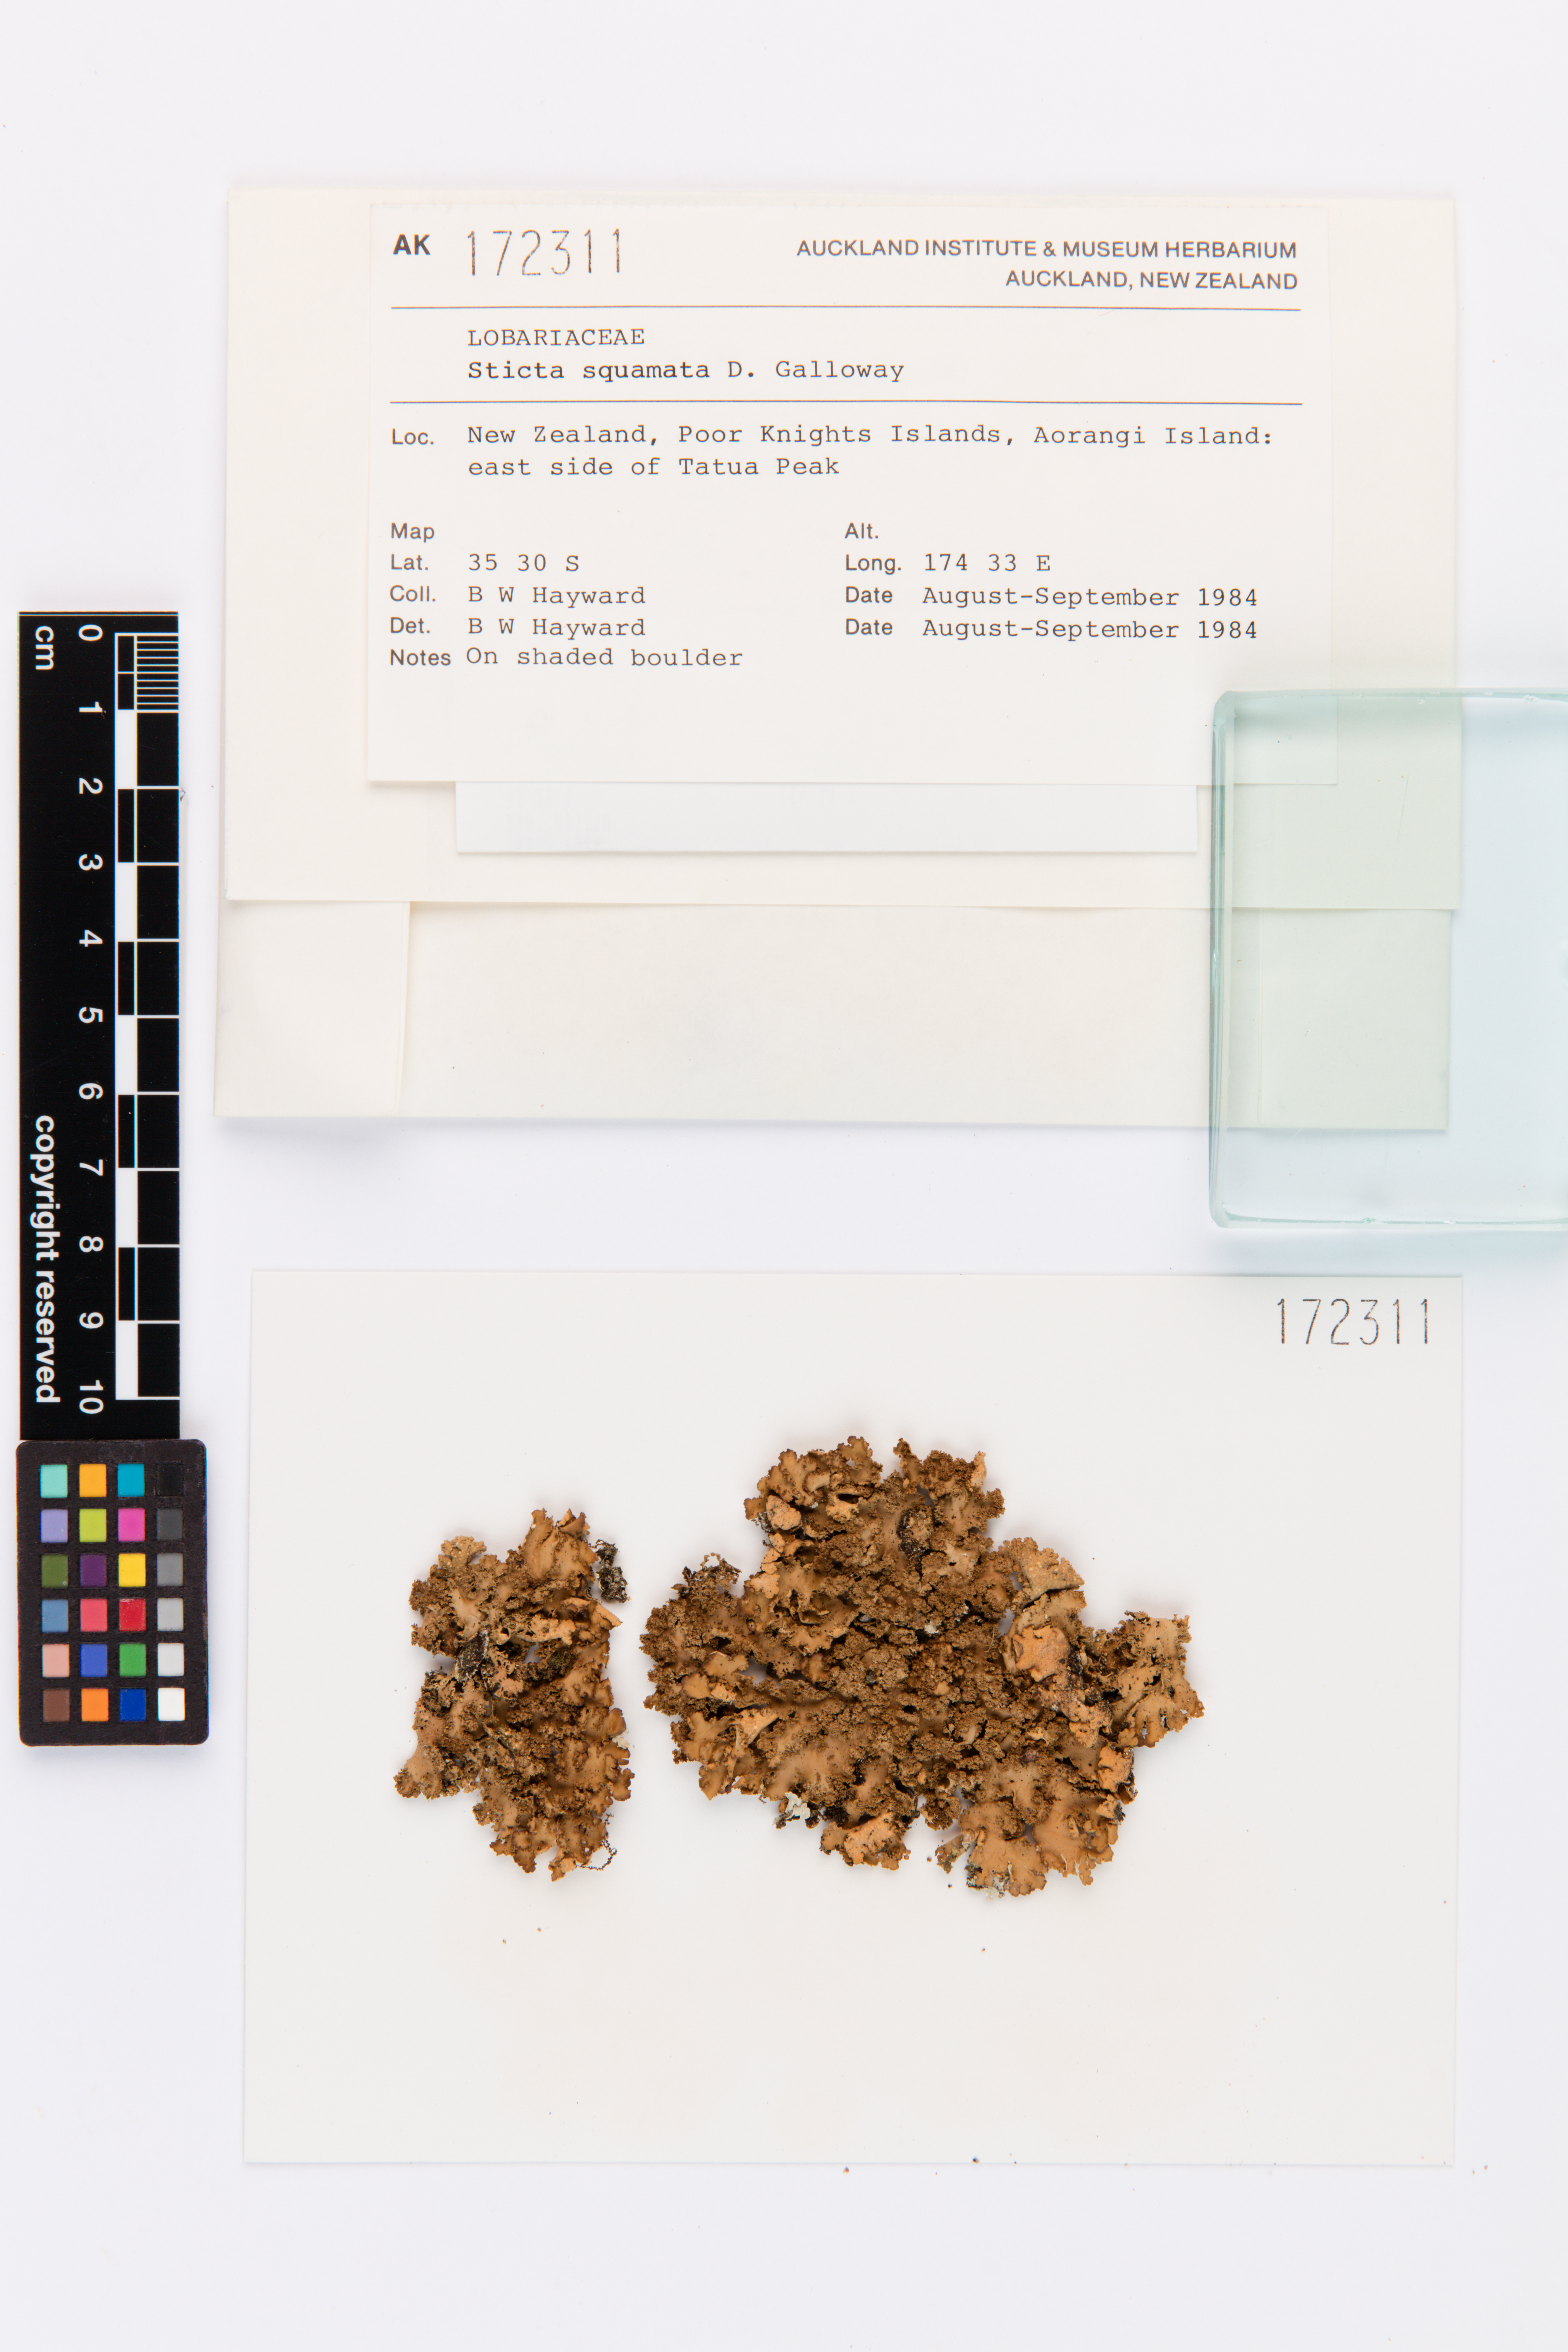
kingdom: Fungi
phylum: Ascomycota
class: Lecanoromycetes
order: Peltigerales
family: Lobariaceae
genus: Sticta
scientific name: Sticta squamata
